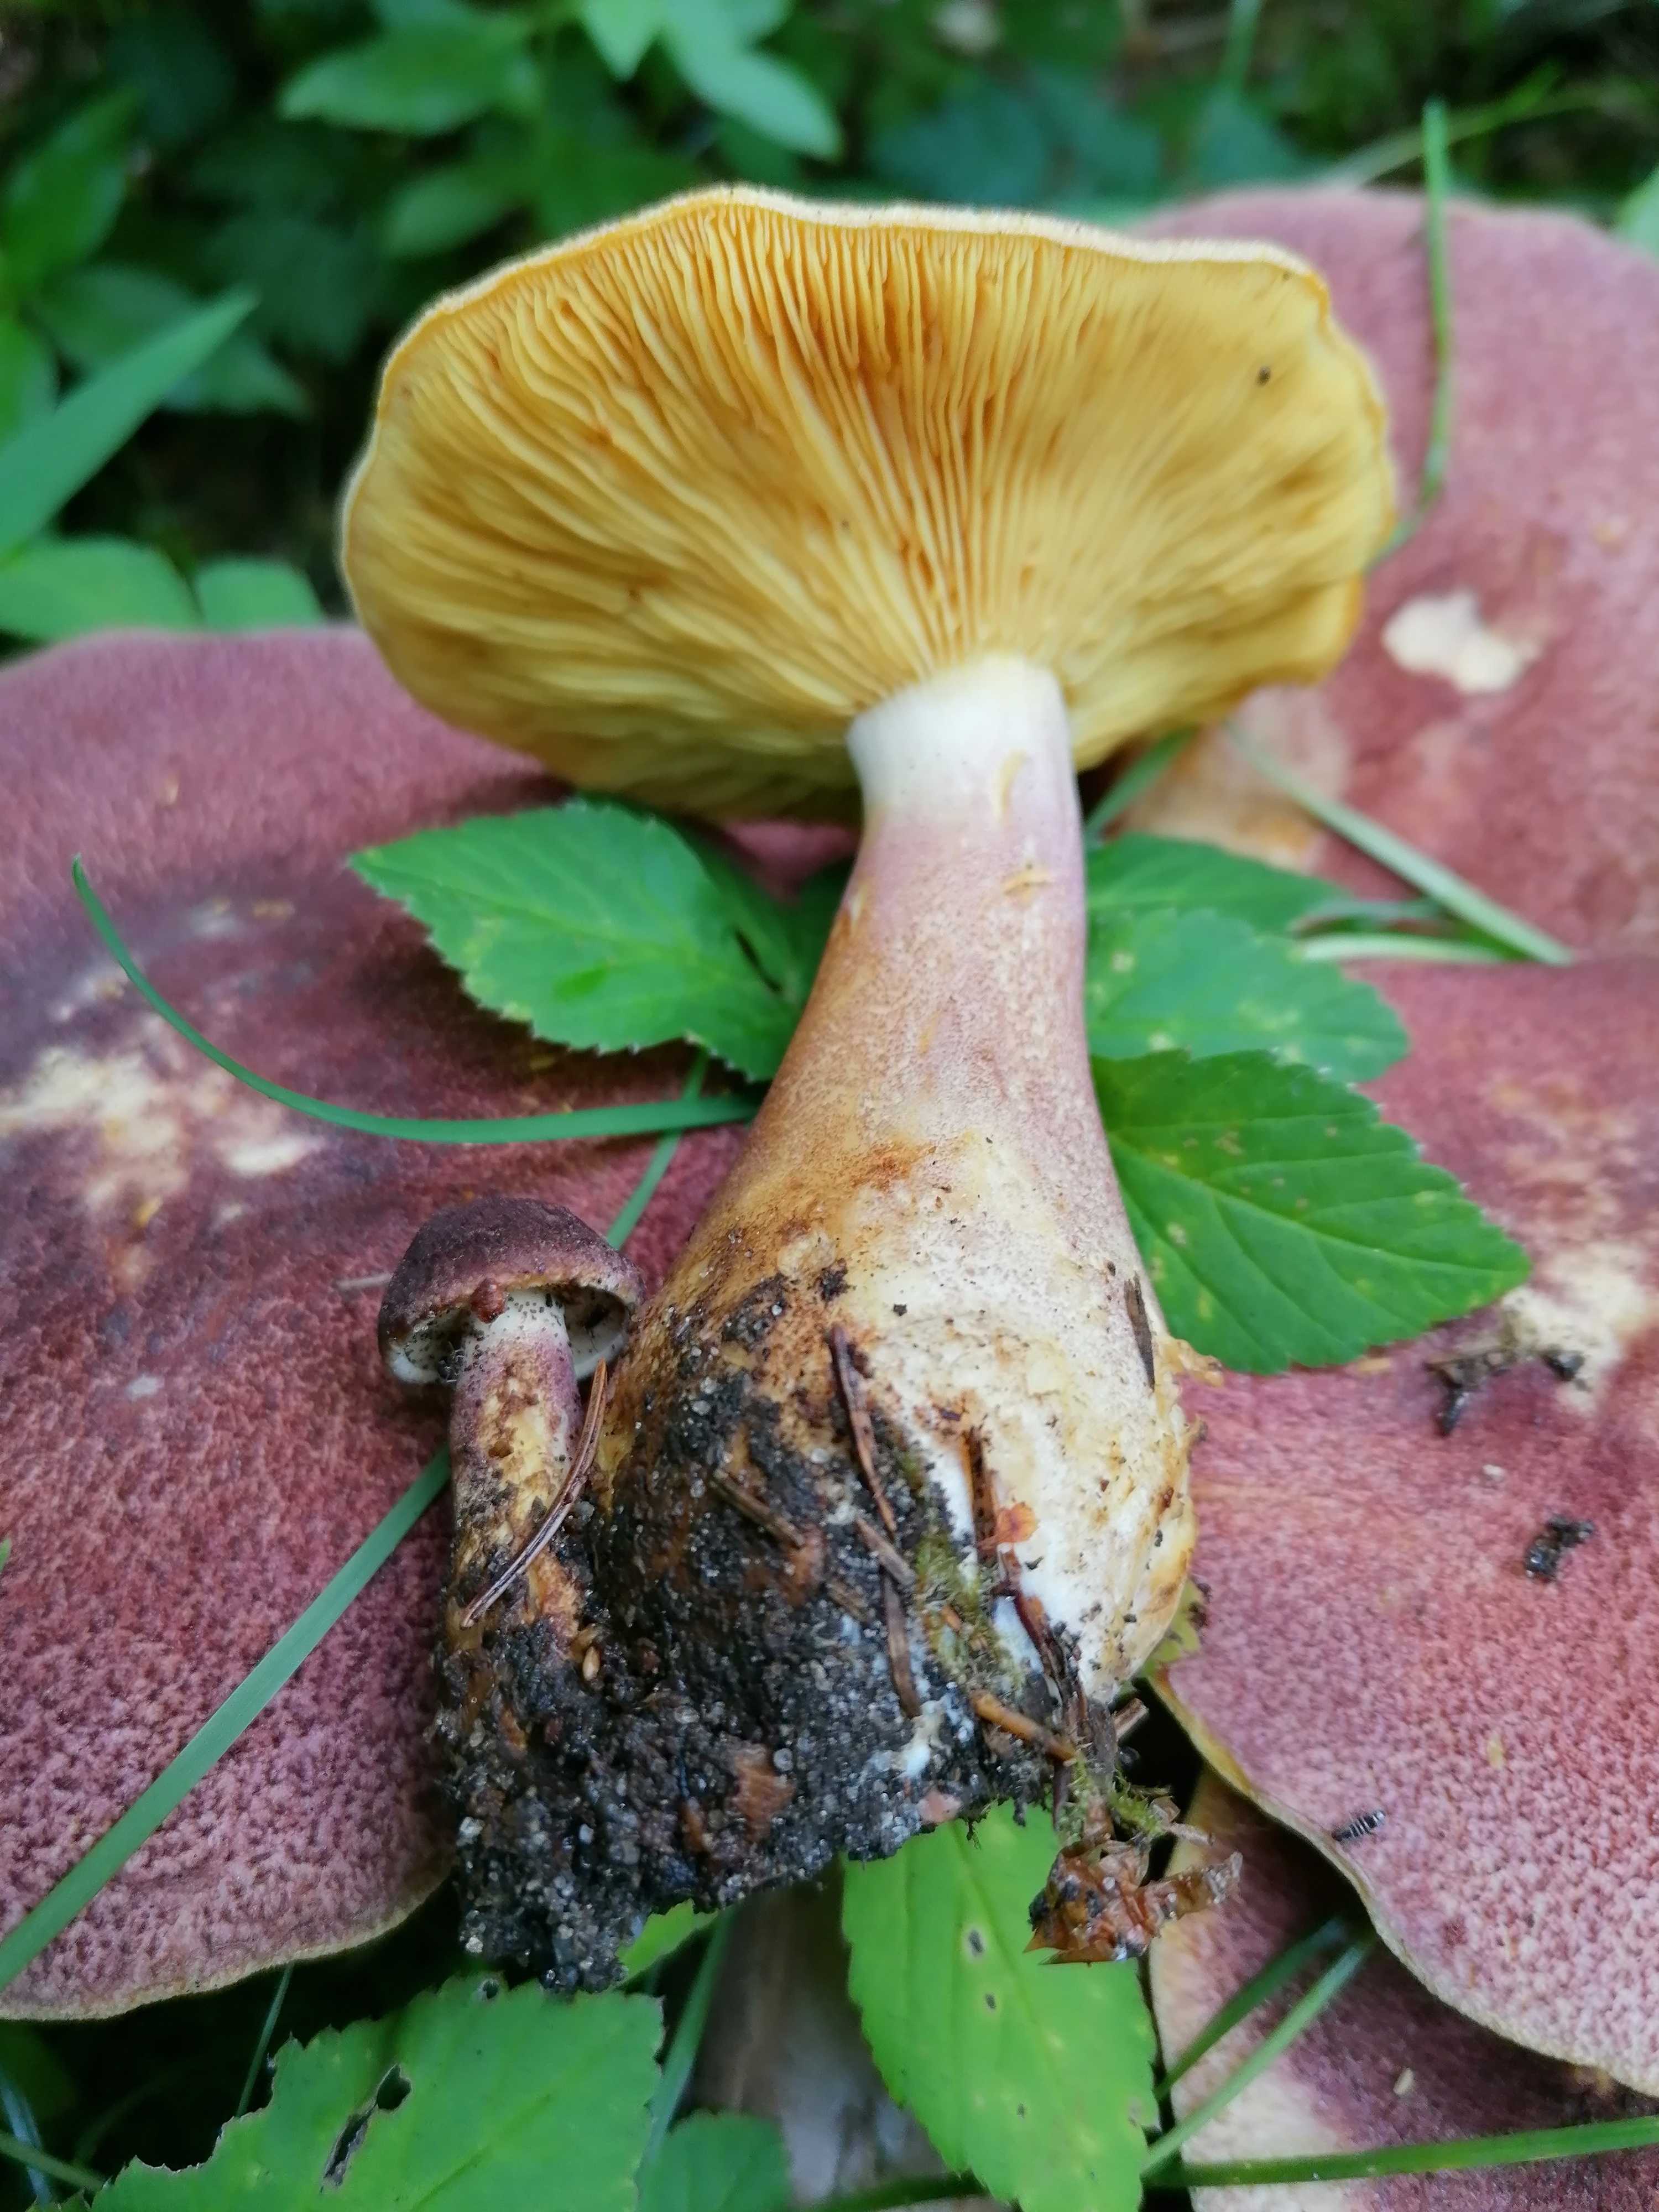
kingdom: Fungi
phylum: Basidiomycota
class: Agaricomycetes
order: Agaricales
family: Tricholomataceae
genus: Tricholomopsis
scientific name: Tricholomopsis rutilans
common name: purpur-væbnerhat
